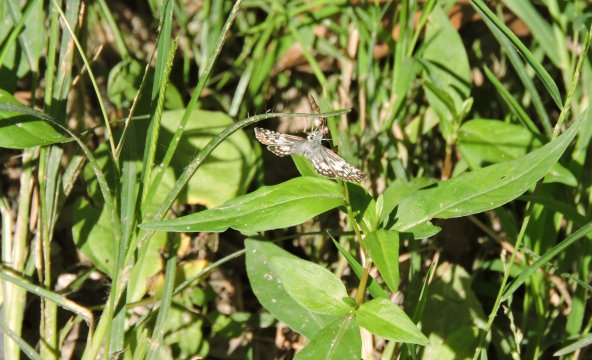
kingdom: Animalia
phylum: Arthropoda
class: Insecta
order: Lepidoptera
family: Hesperiidae
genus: Pyrgus
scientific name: Pyrgus
